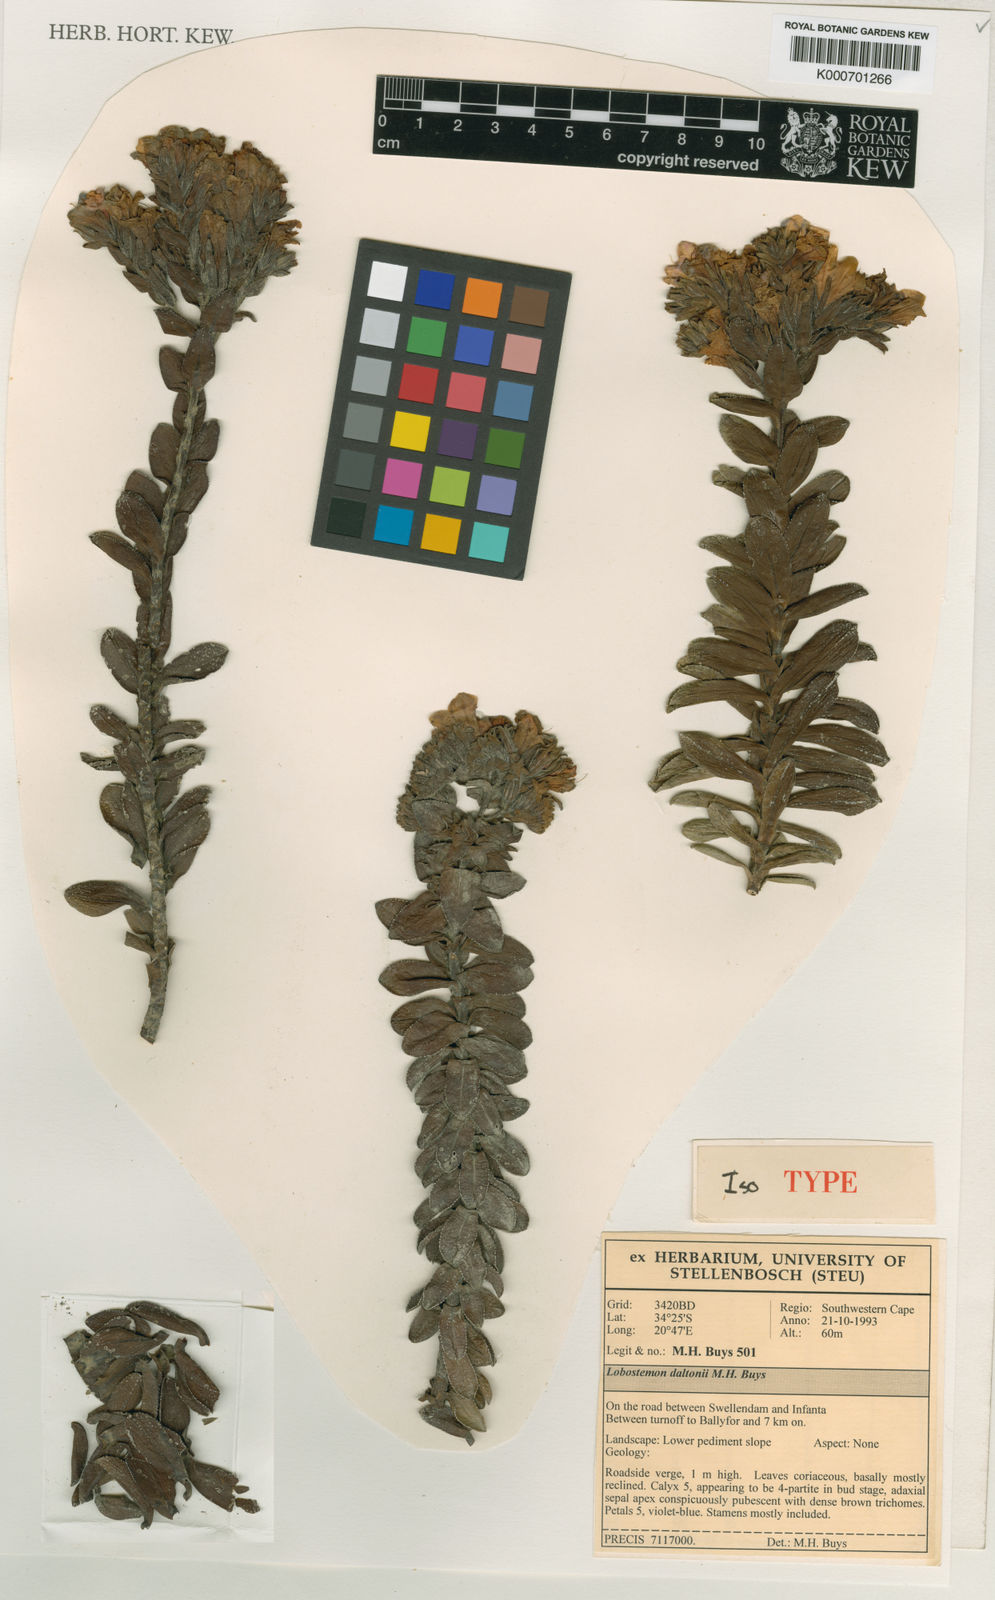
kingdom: Plantae
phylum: Tracheophyta
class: Magnoliopsida
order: Boraginales
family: Boraginaceae
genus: Lobostemon
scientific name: Lobostemon daltonii
